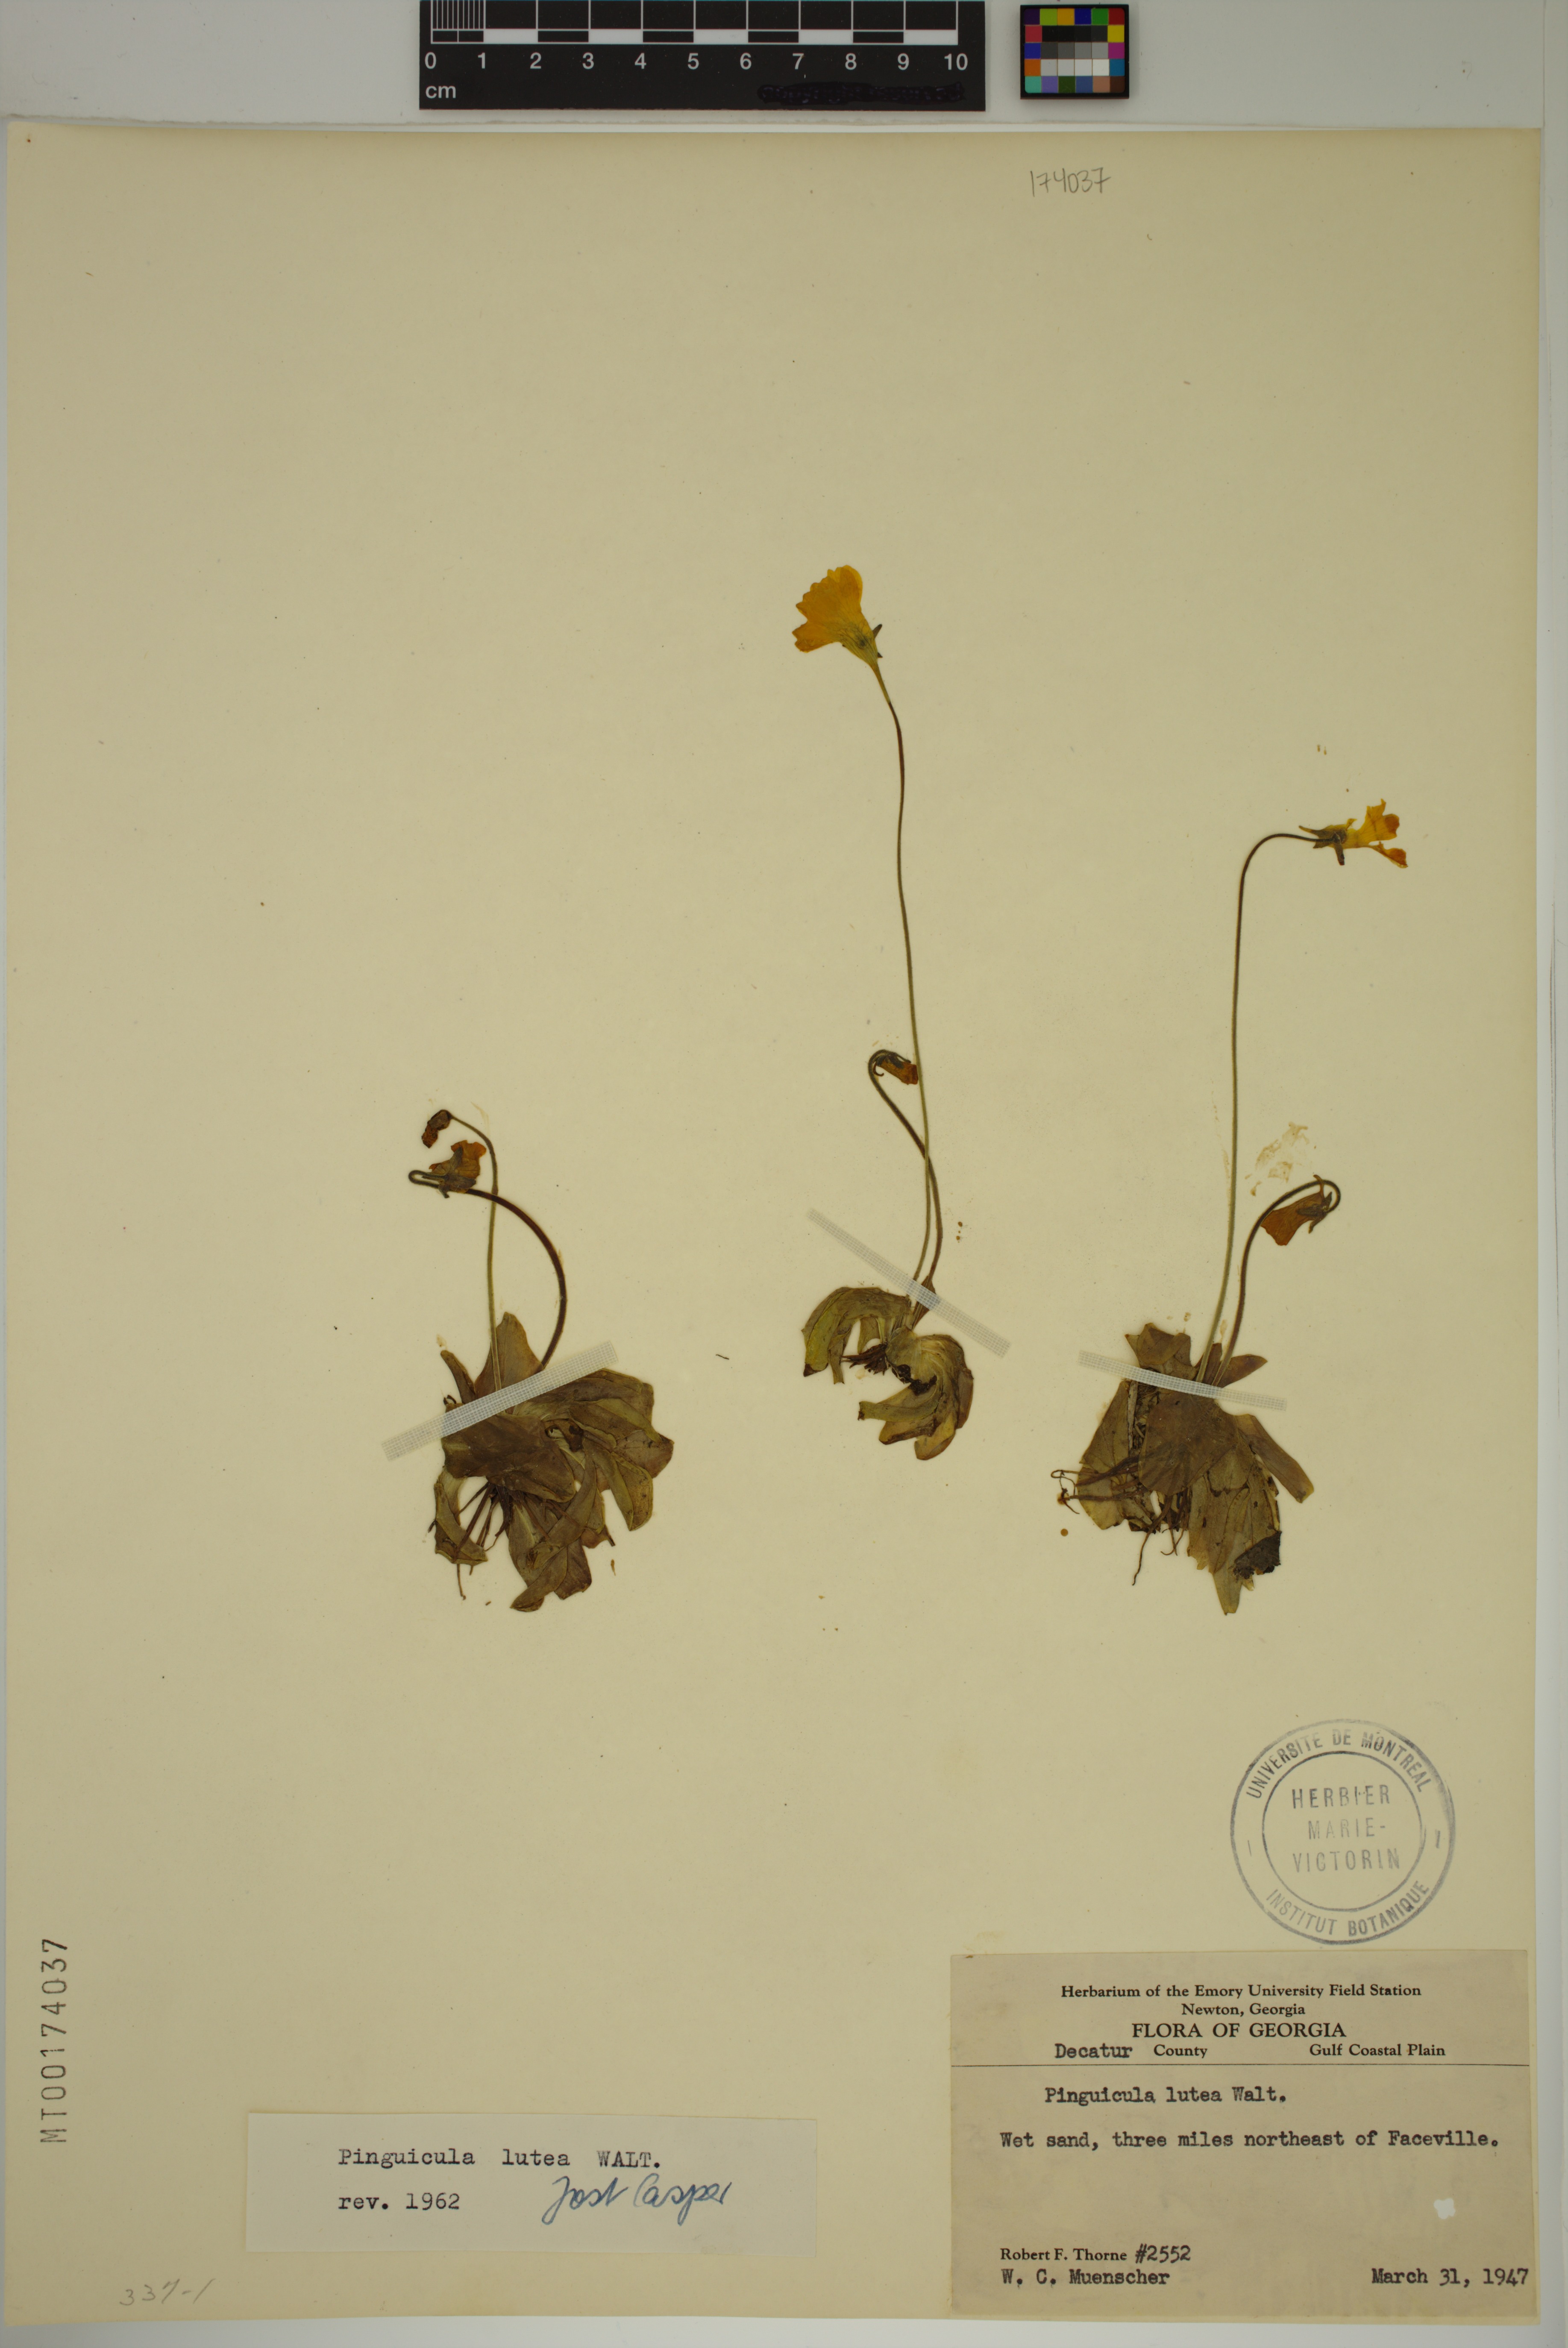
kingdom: Plantae
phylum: Tracheophyta
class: Magnoliopsida
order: Lamiales
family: Lentibulariaceae
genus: Pinguicula
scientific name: Pinguicula lutea
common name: Yellow butterwort
